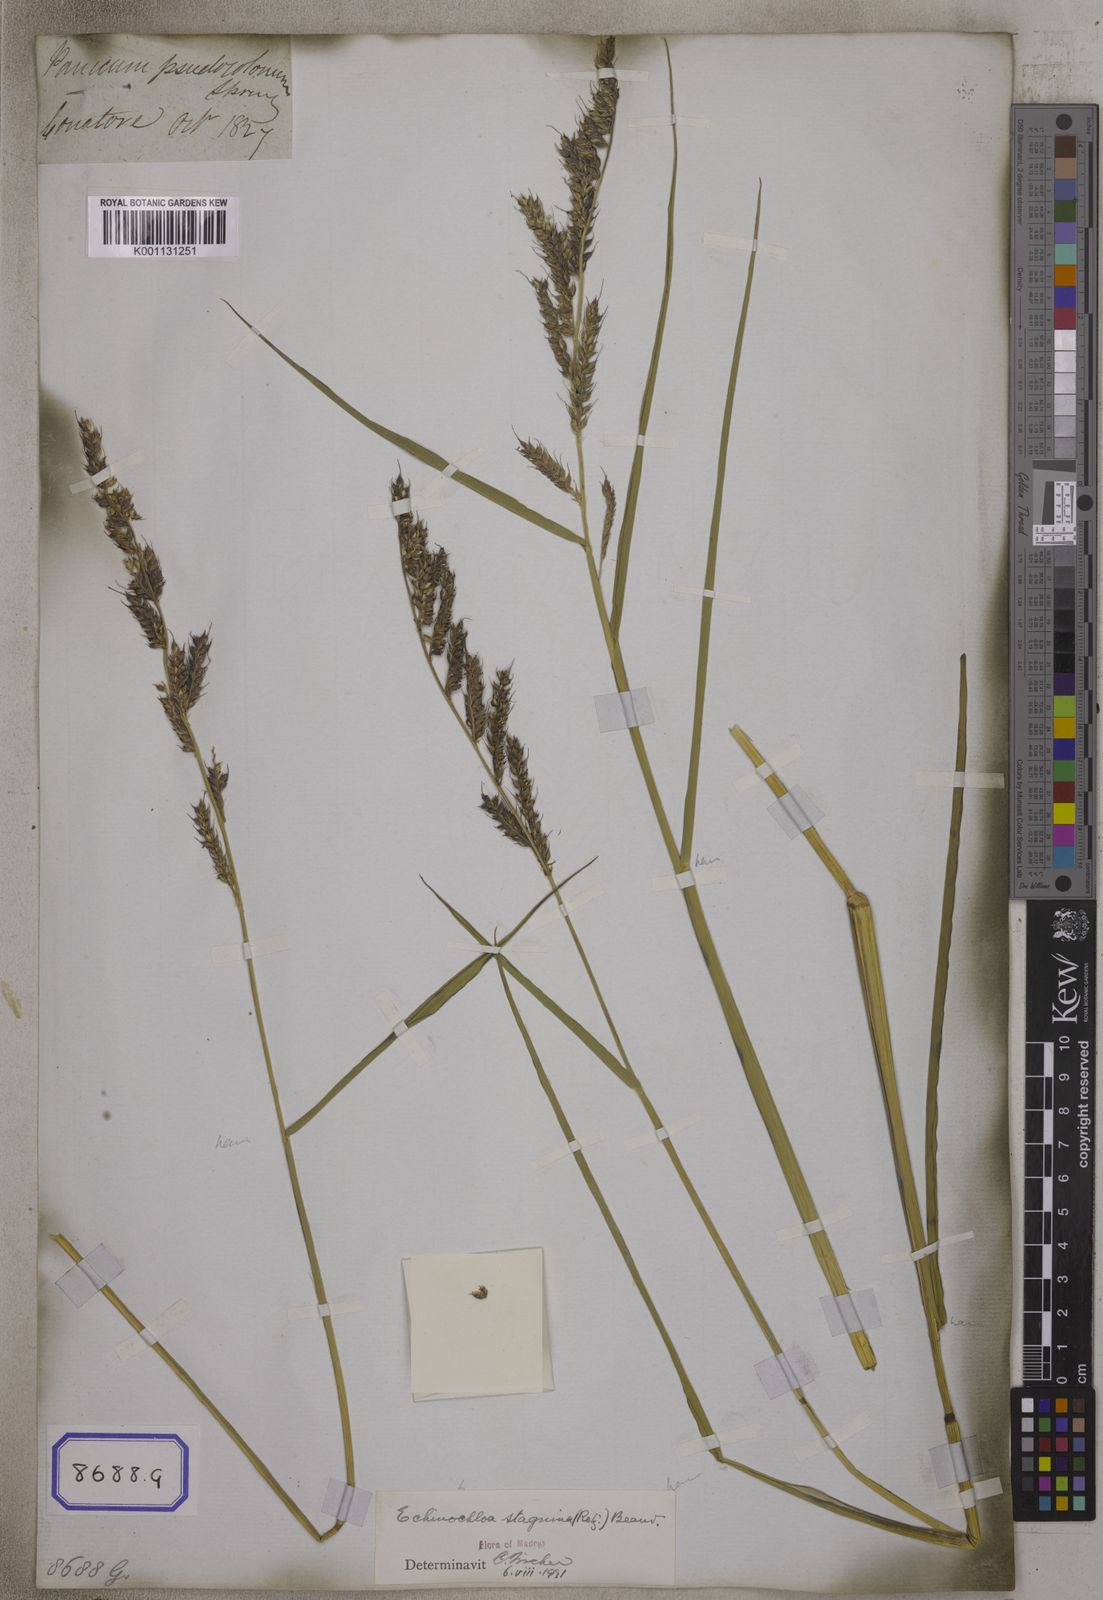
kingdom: Plantae
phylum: Tracheophyta
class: Liliopsida
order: Poales
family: Poaceae
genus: Echinochloa
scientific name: Echinochloa stagnina
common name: Burgu grass
